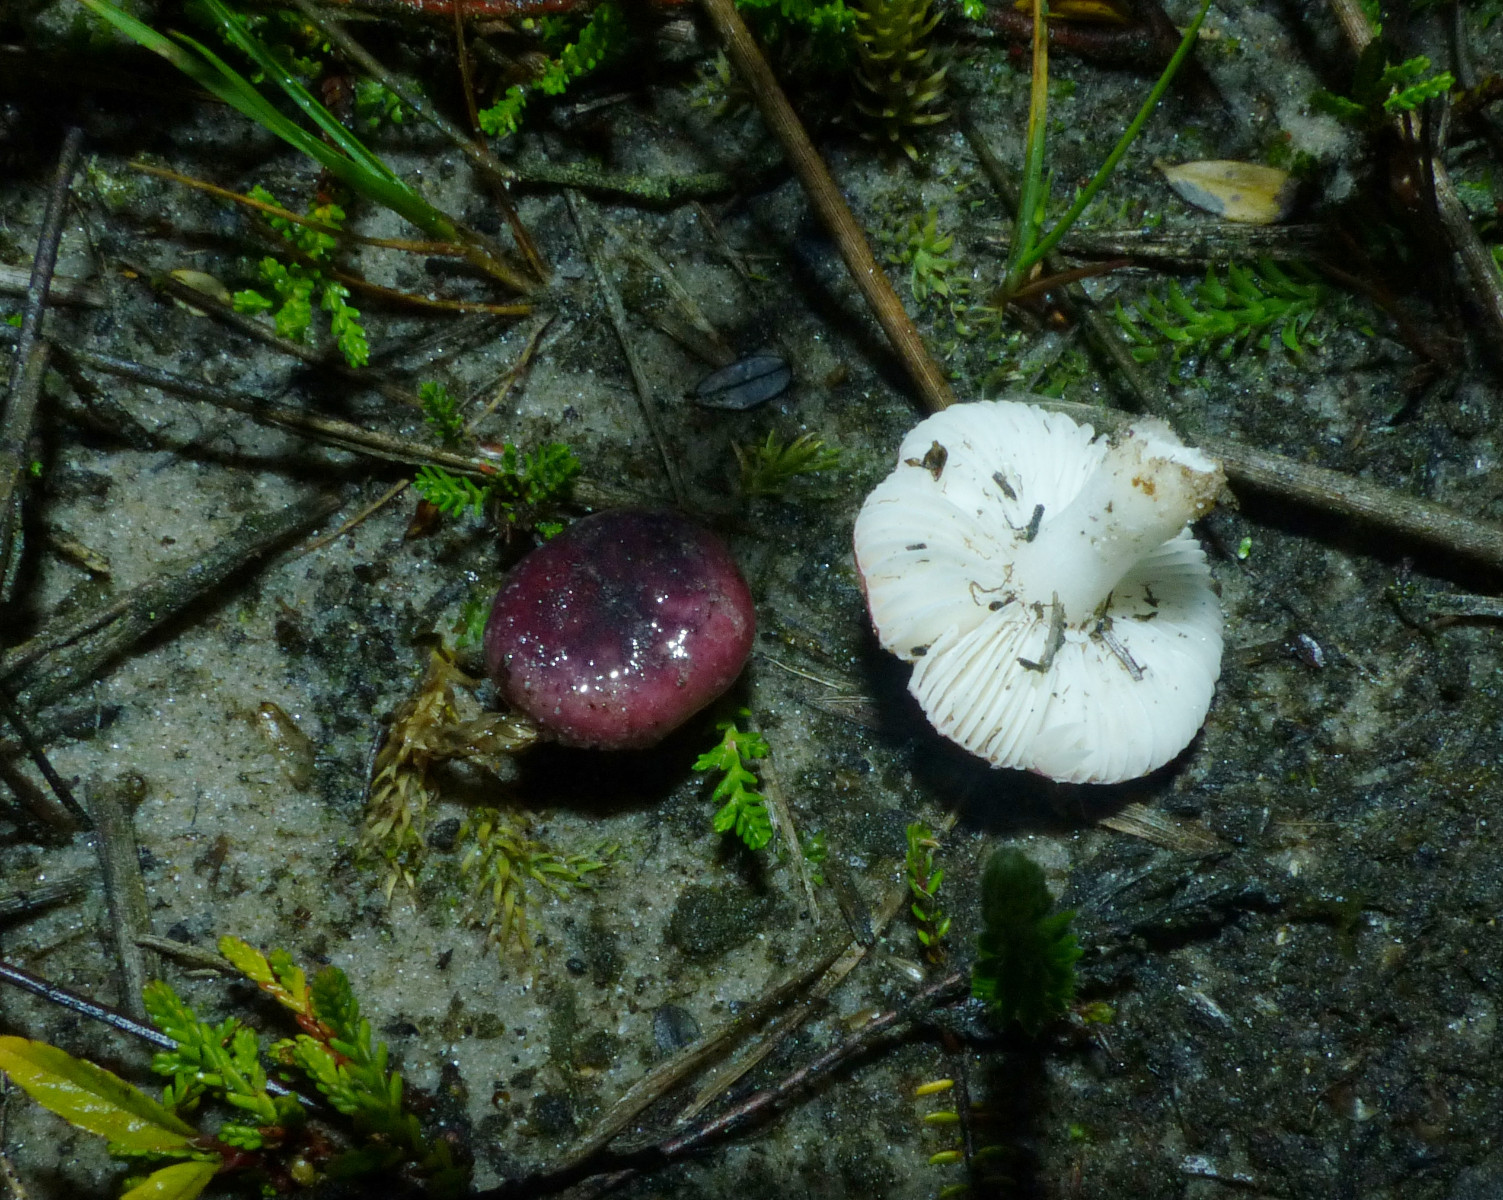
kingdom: Fungi
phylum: Basidiomycota
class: Agaricomycetes
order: Russulales
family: Russulaceae
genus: Russula
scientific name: Russula laccata
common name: klit-skørhat
